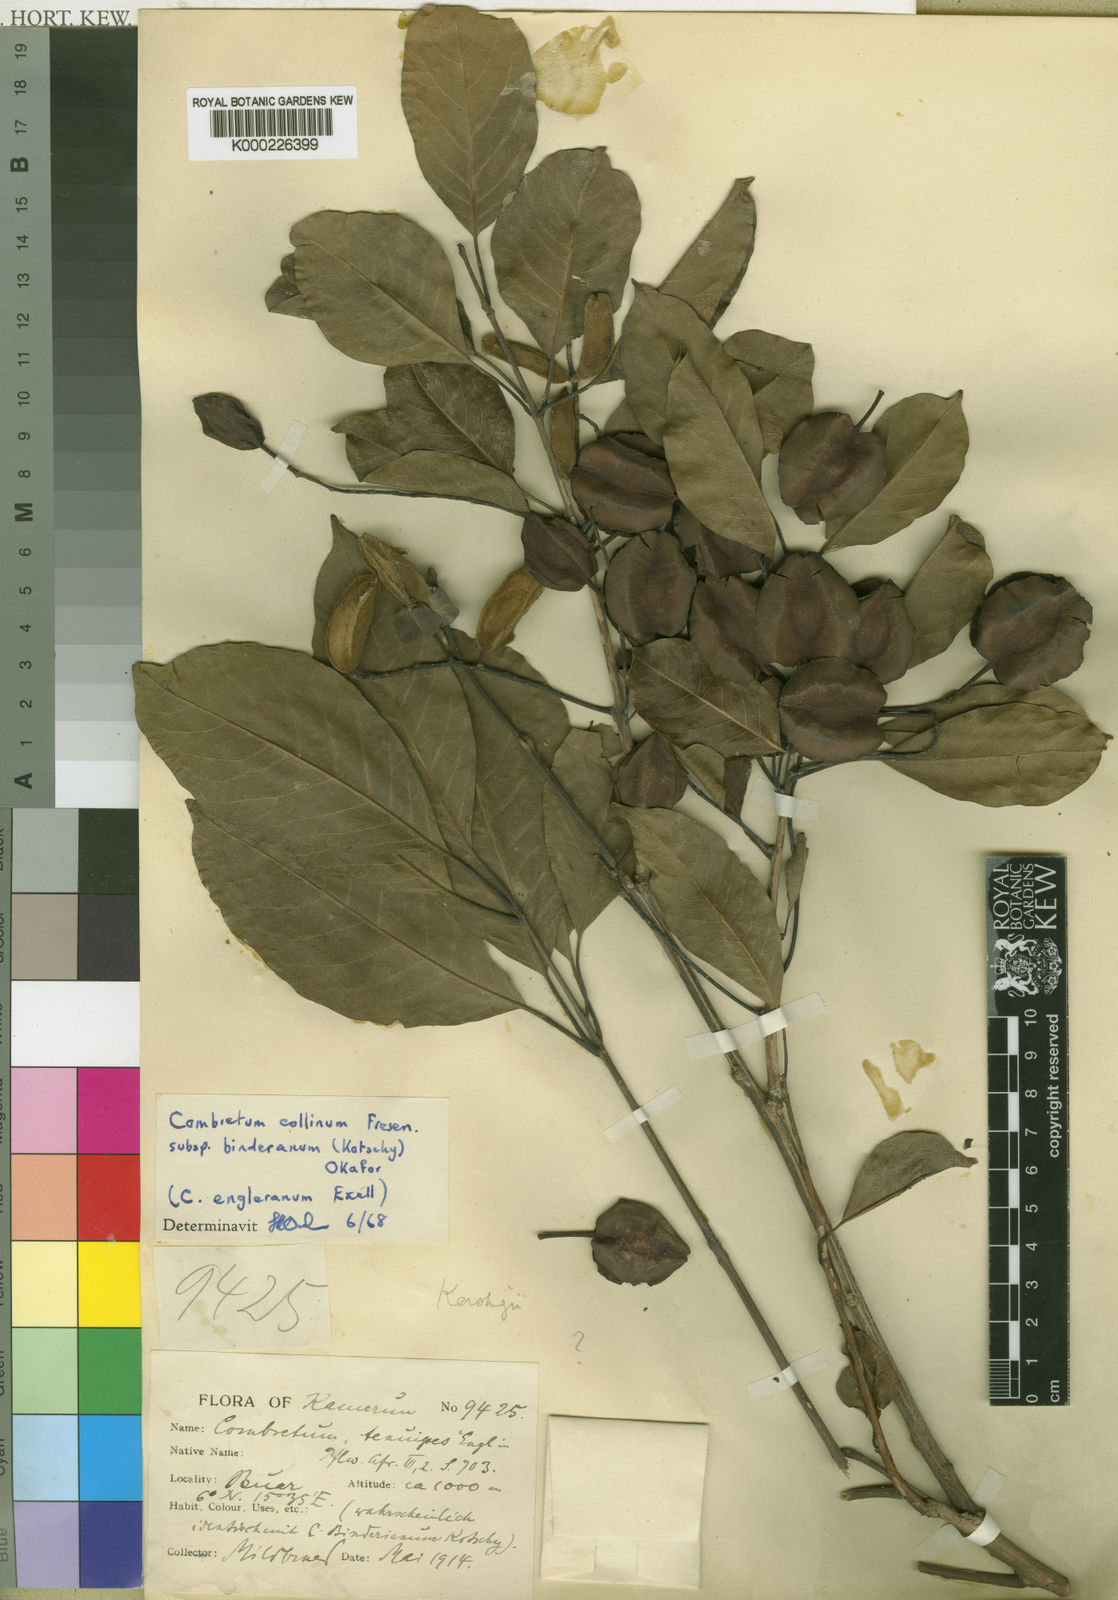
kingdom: Plantae
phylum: Tracheophyta
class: Magnoliopsida
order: Myrtales
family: Combretaceae
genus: Combretum
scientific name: Combretum collinum
